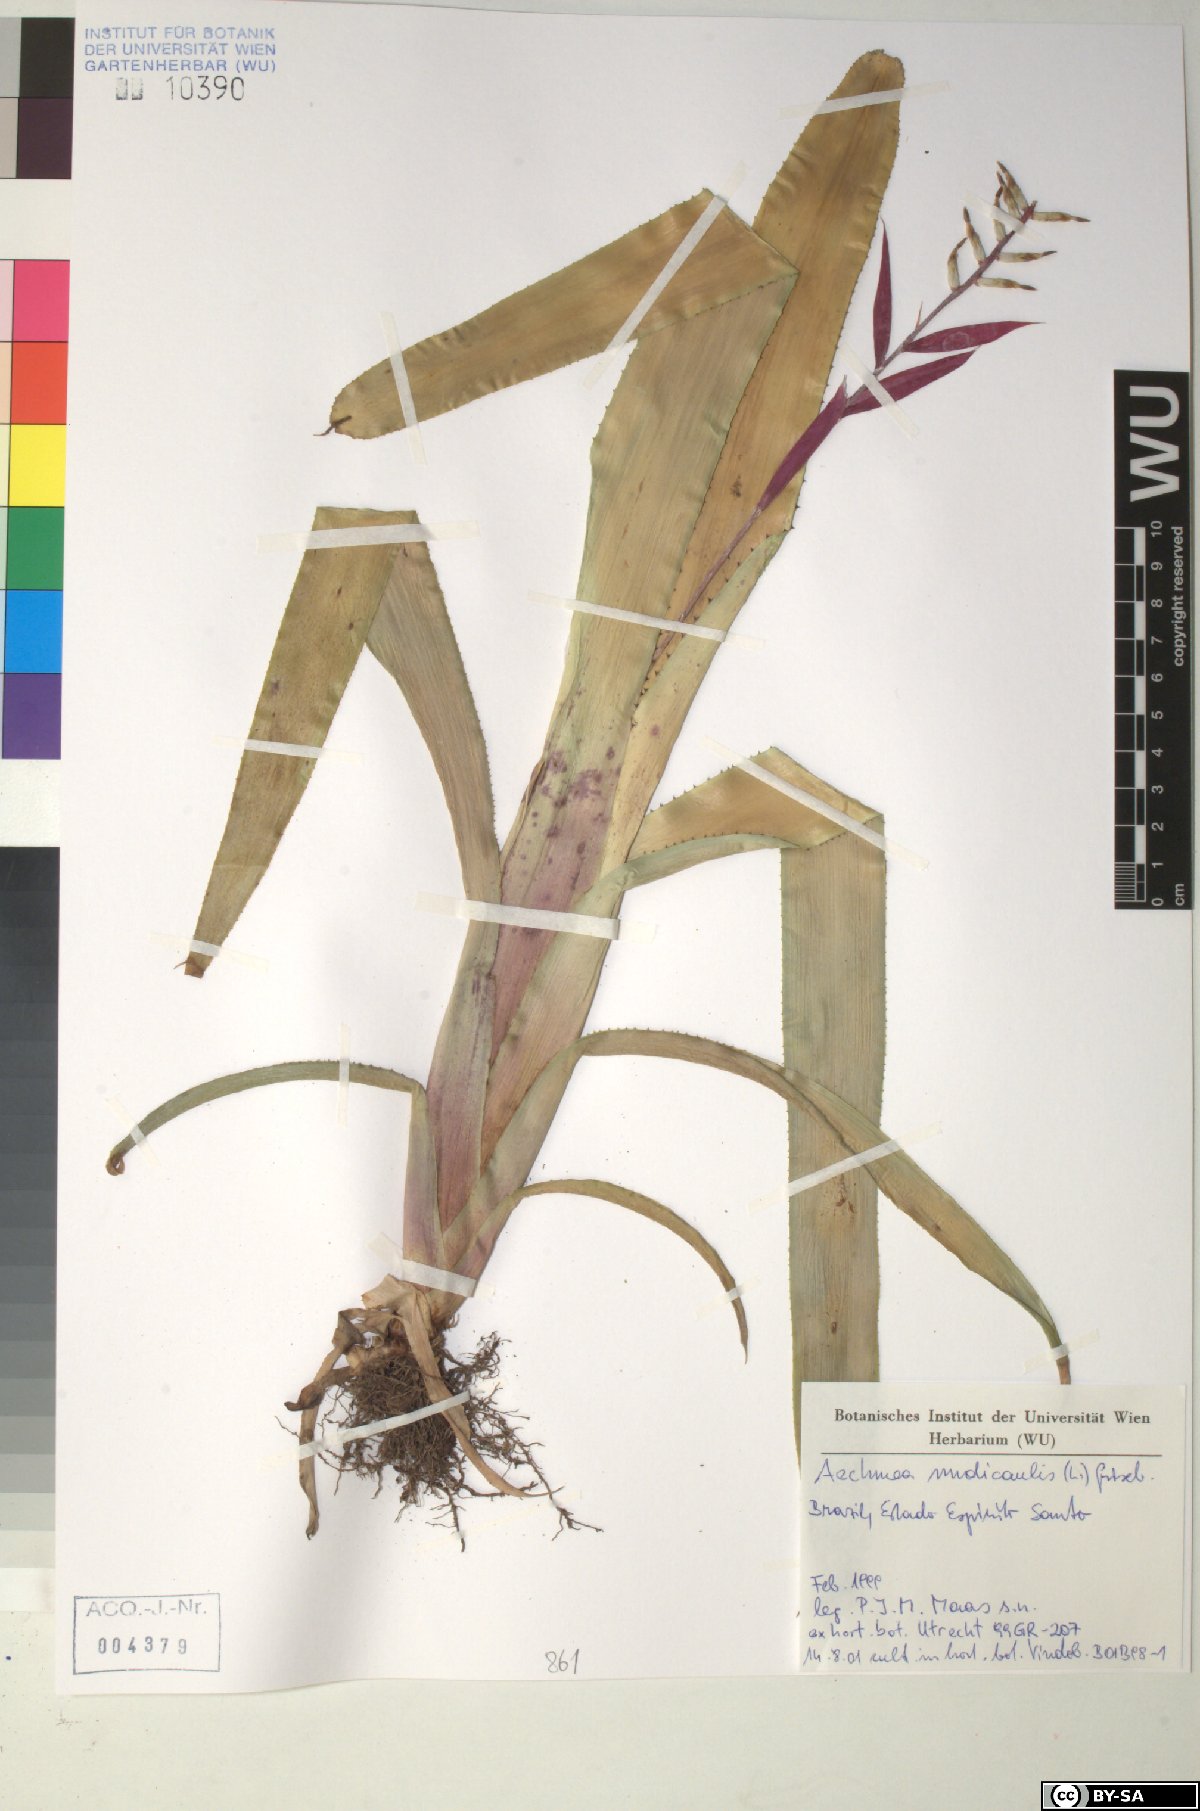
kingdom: Plantae
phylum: Tracheophyta
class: Liliopsida
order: Poales
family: Bromeliaceae
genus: Aechmea
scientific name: Aechmea nudicaulis
